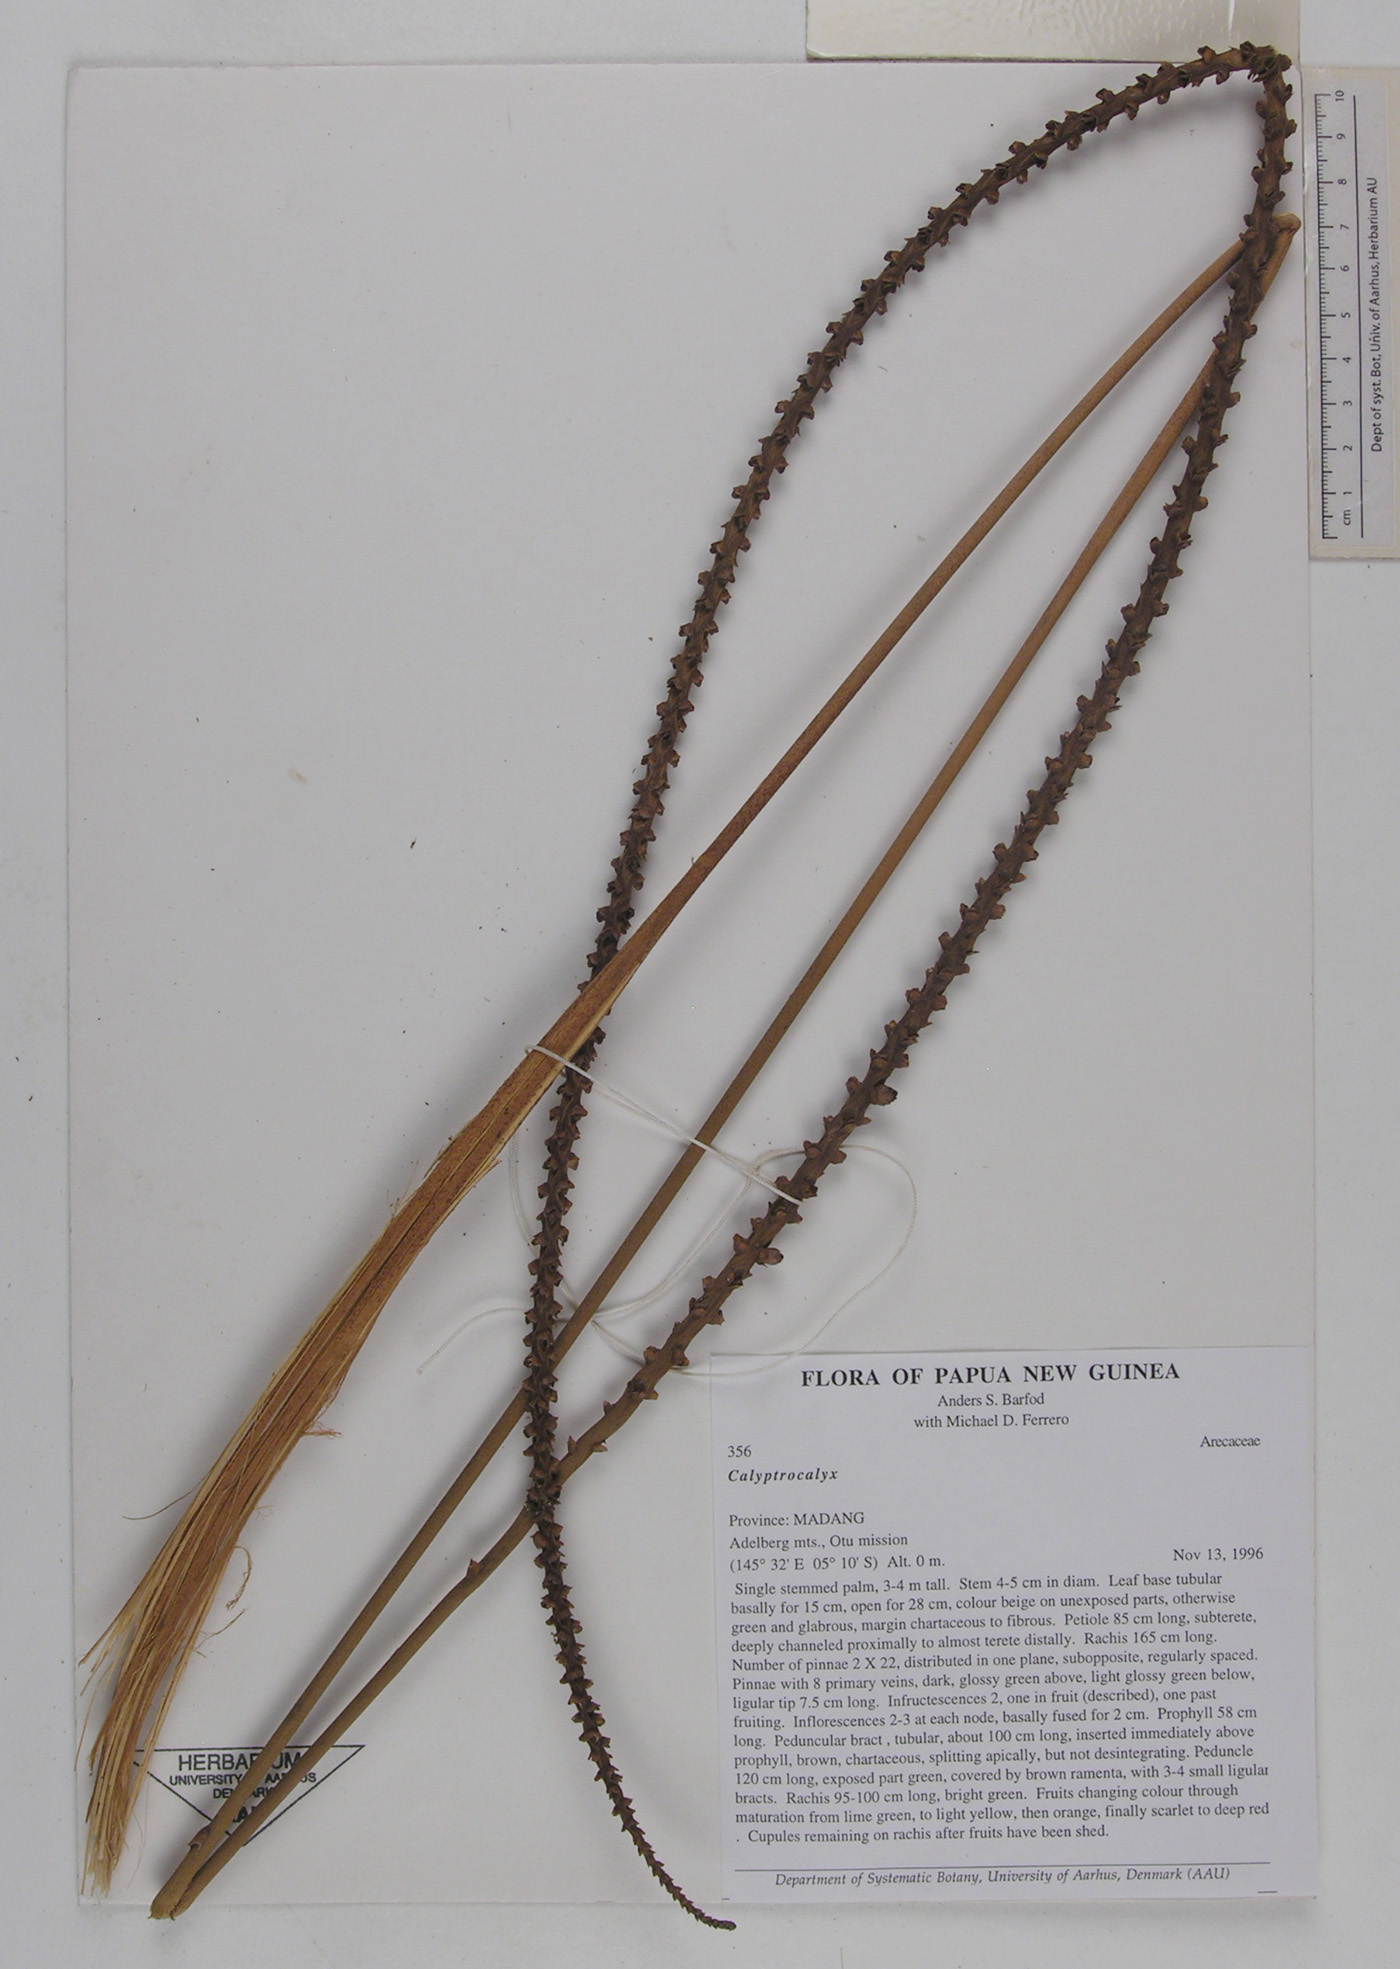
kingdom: Plantae
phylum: Tracheophyta
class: Liliopsida
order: Arecales
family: Arecaceae
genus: Calyptrocalyx
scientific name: Calyptrocalyx
